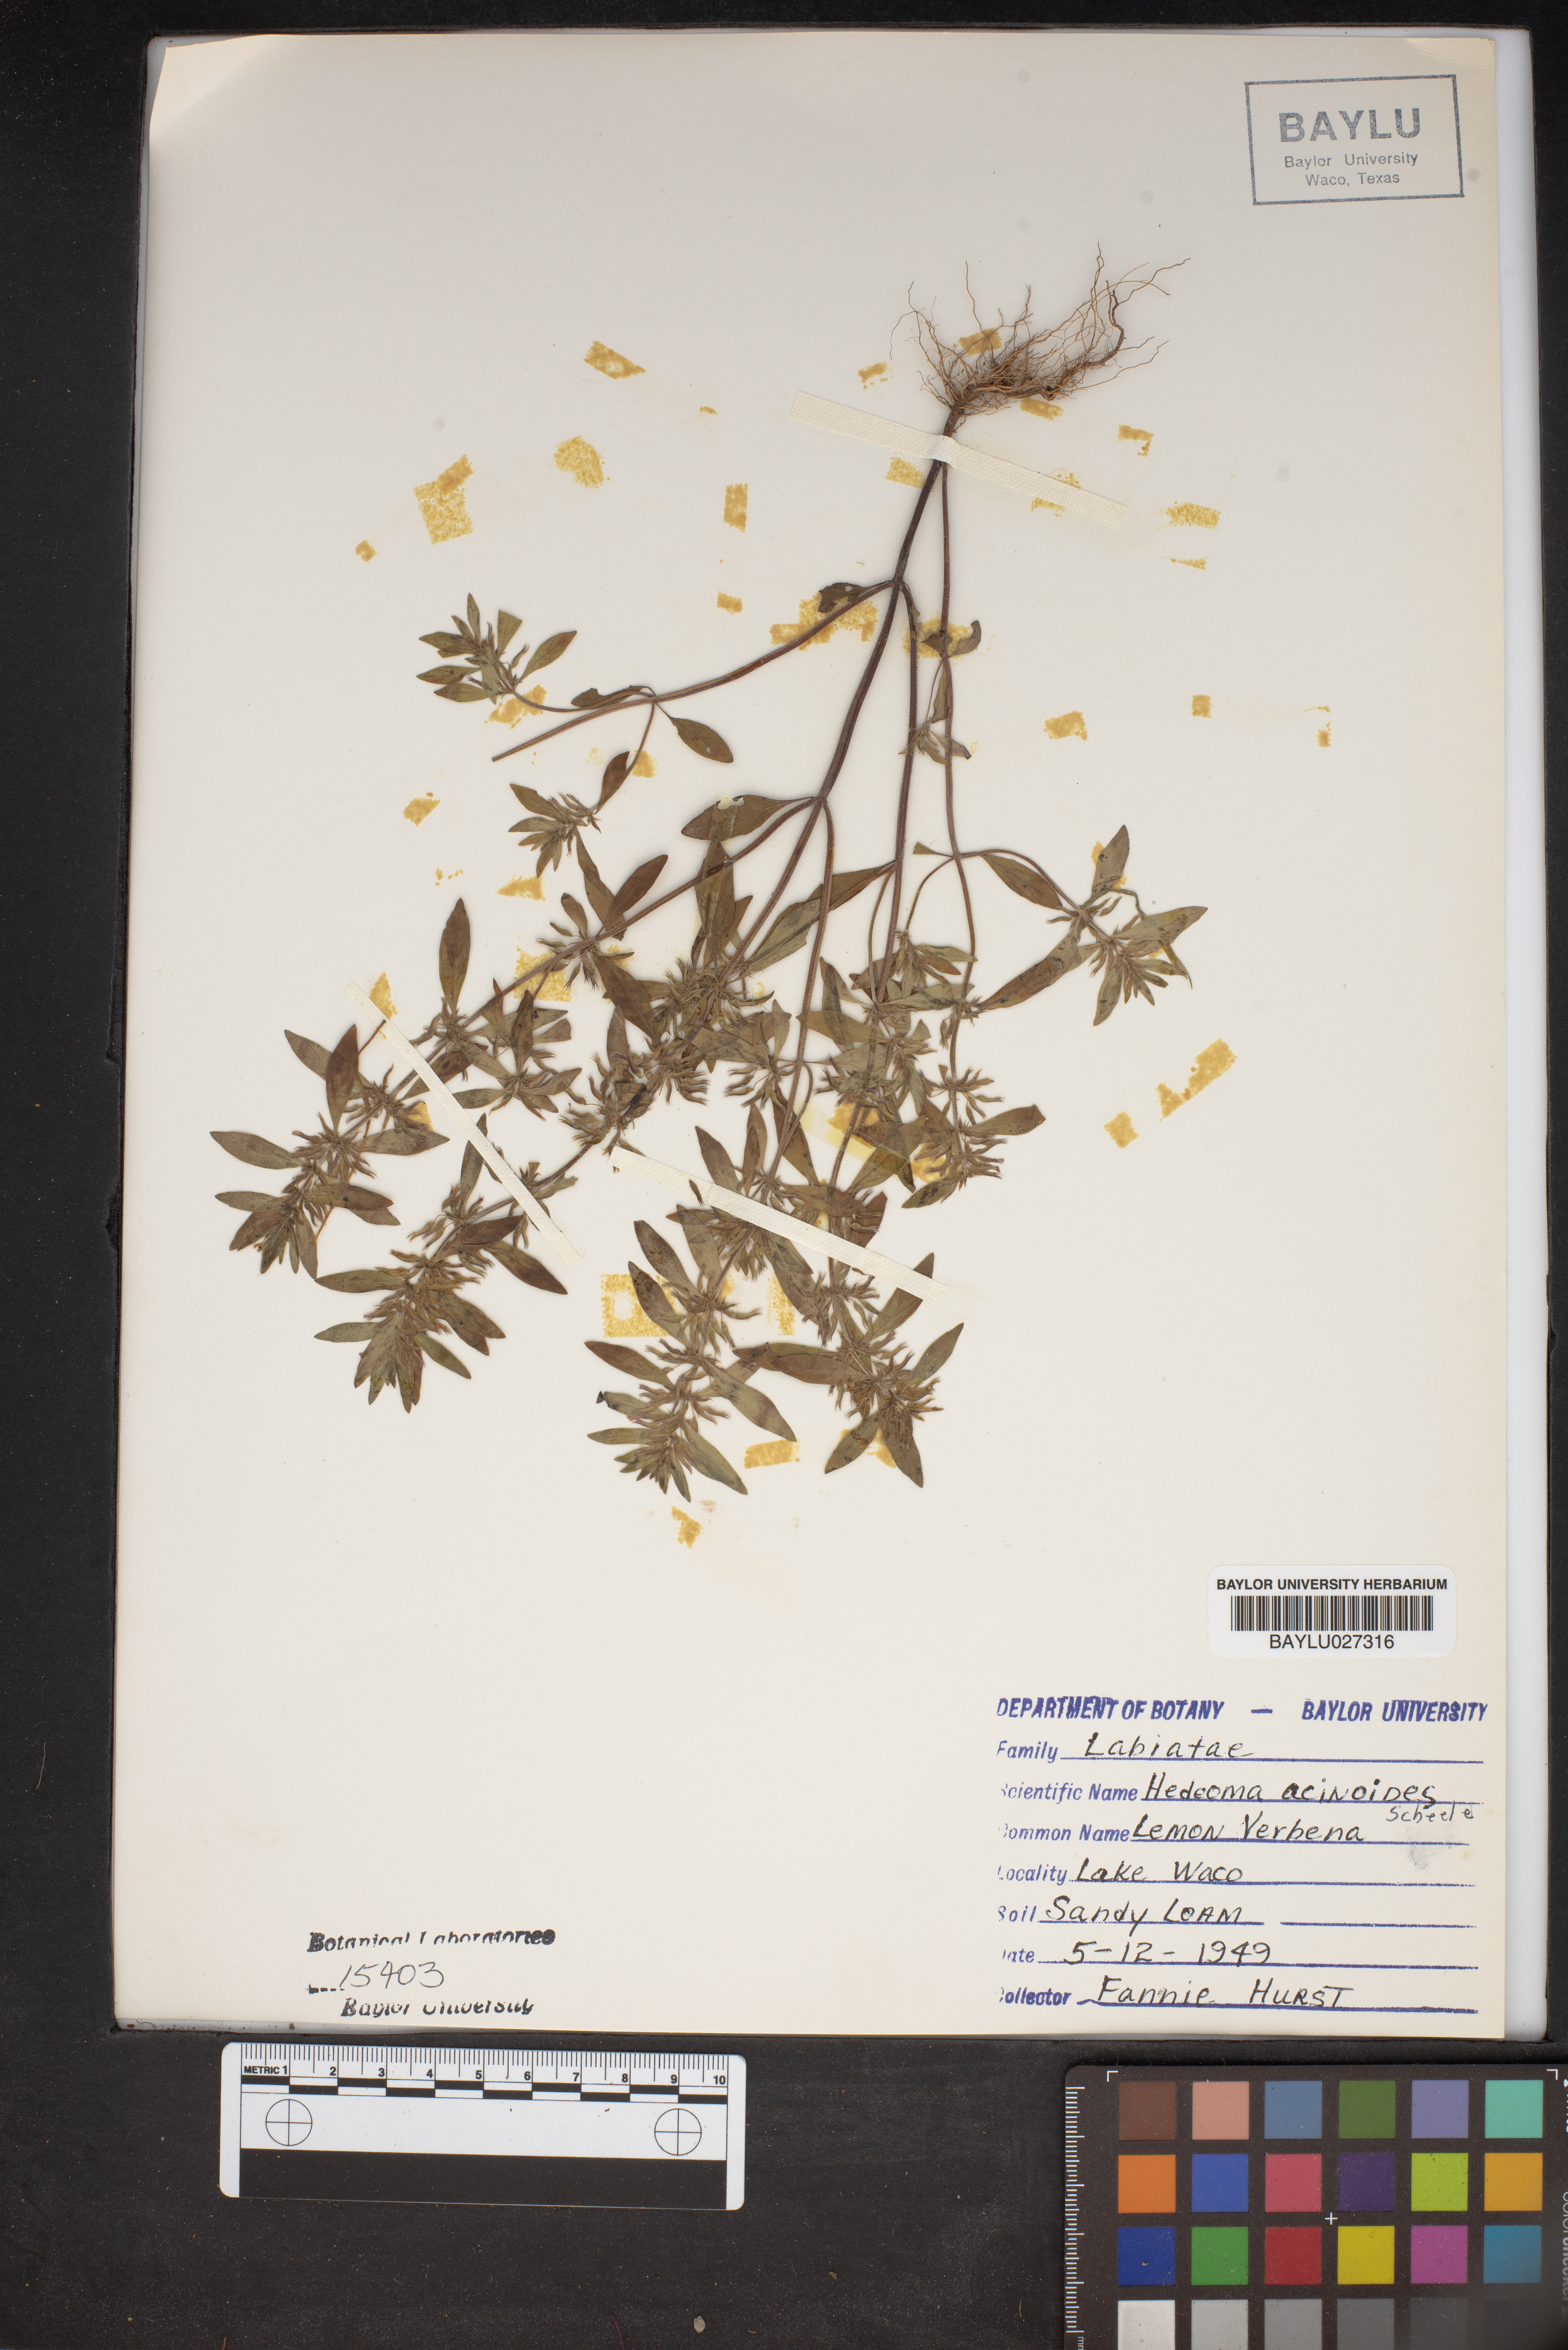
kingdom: Plantae
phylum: Tracheophyta
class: Magnoliopsida
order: Lamiales
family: Lamiaceae
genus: Hedeoma
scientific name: Hedeoma acinoides
